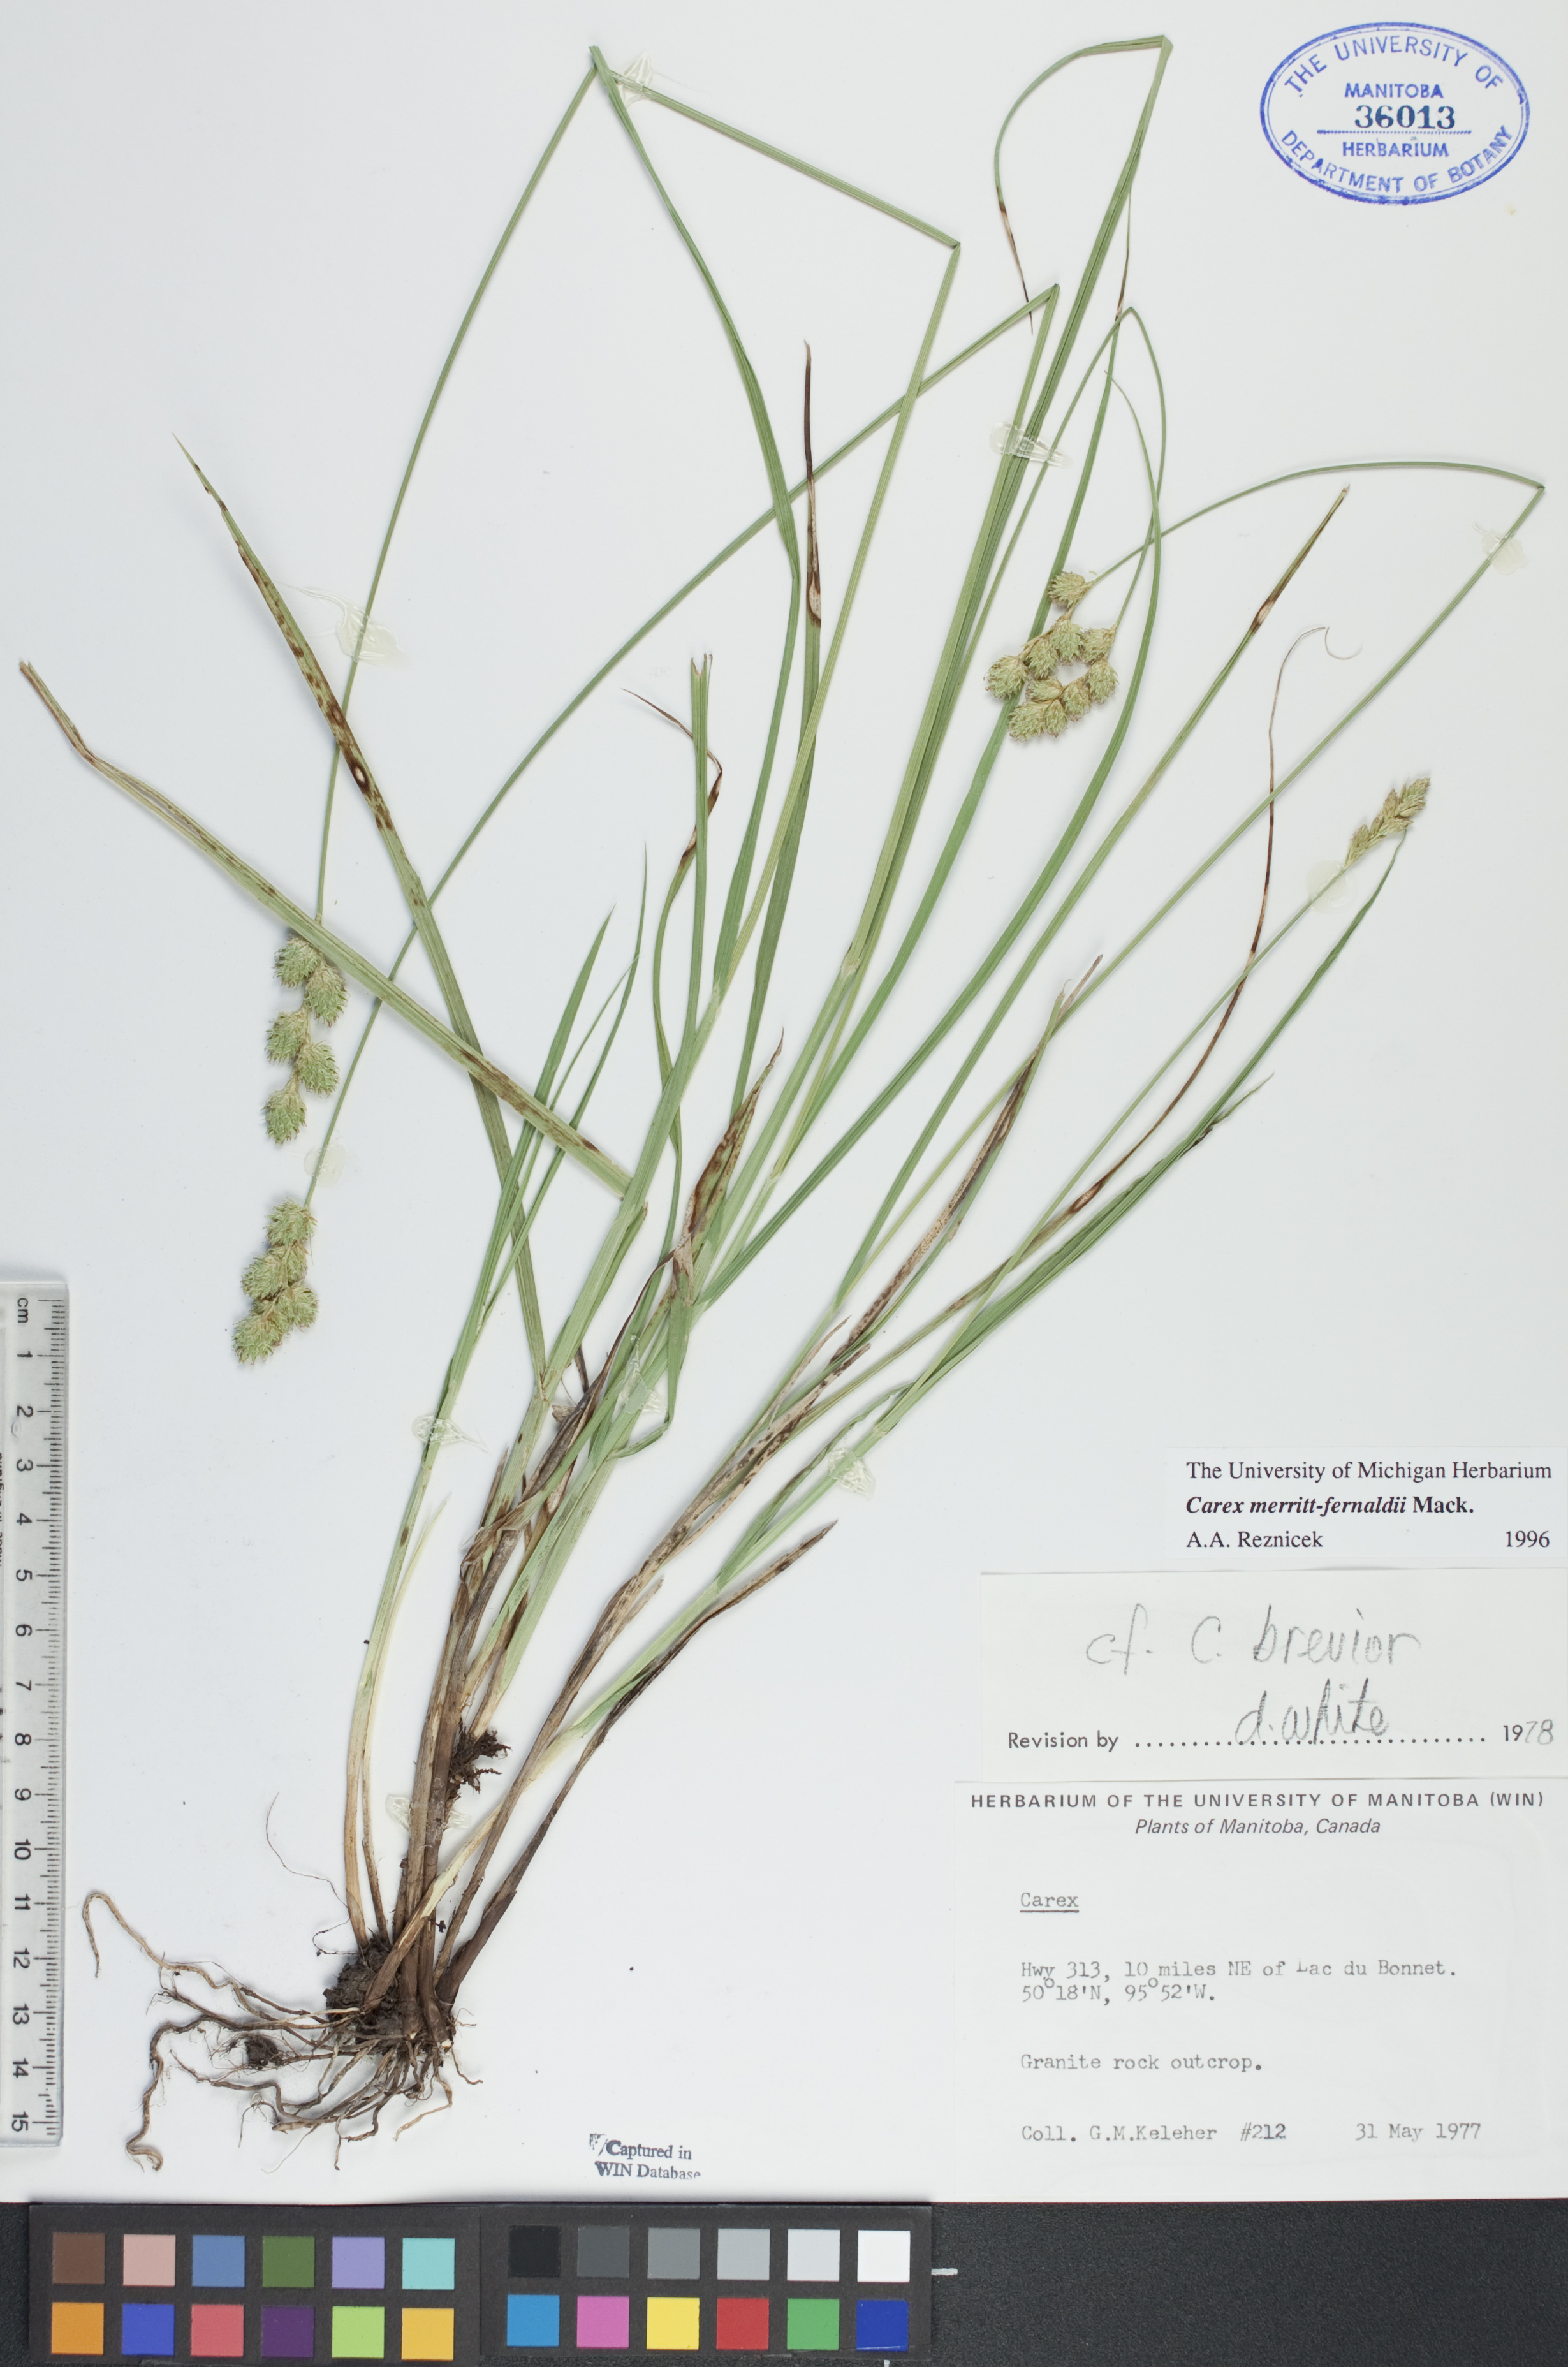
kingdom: Plantae
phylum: Tracheophyta
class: Liliopsida
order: Poales
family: Cyperaceae
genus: Carex
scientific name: Carex merritt-fernaldii
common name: Fernald's oval sedge
